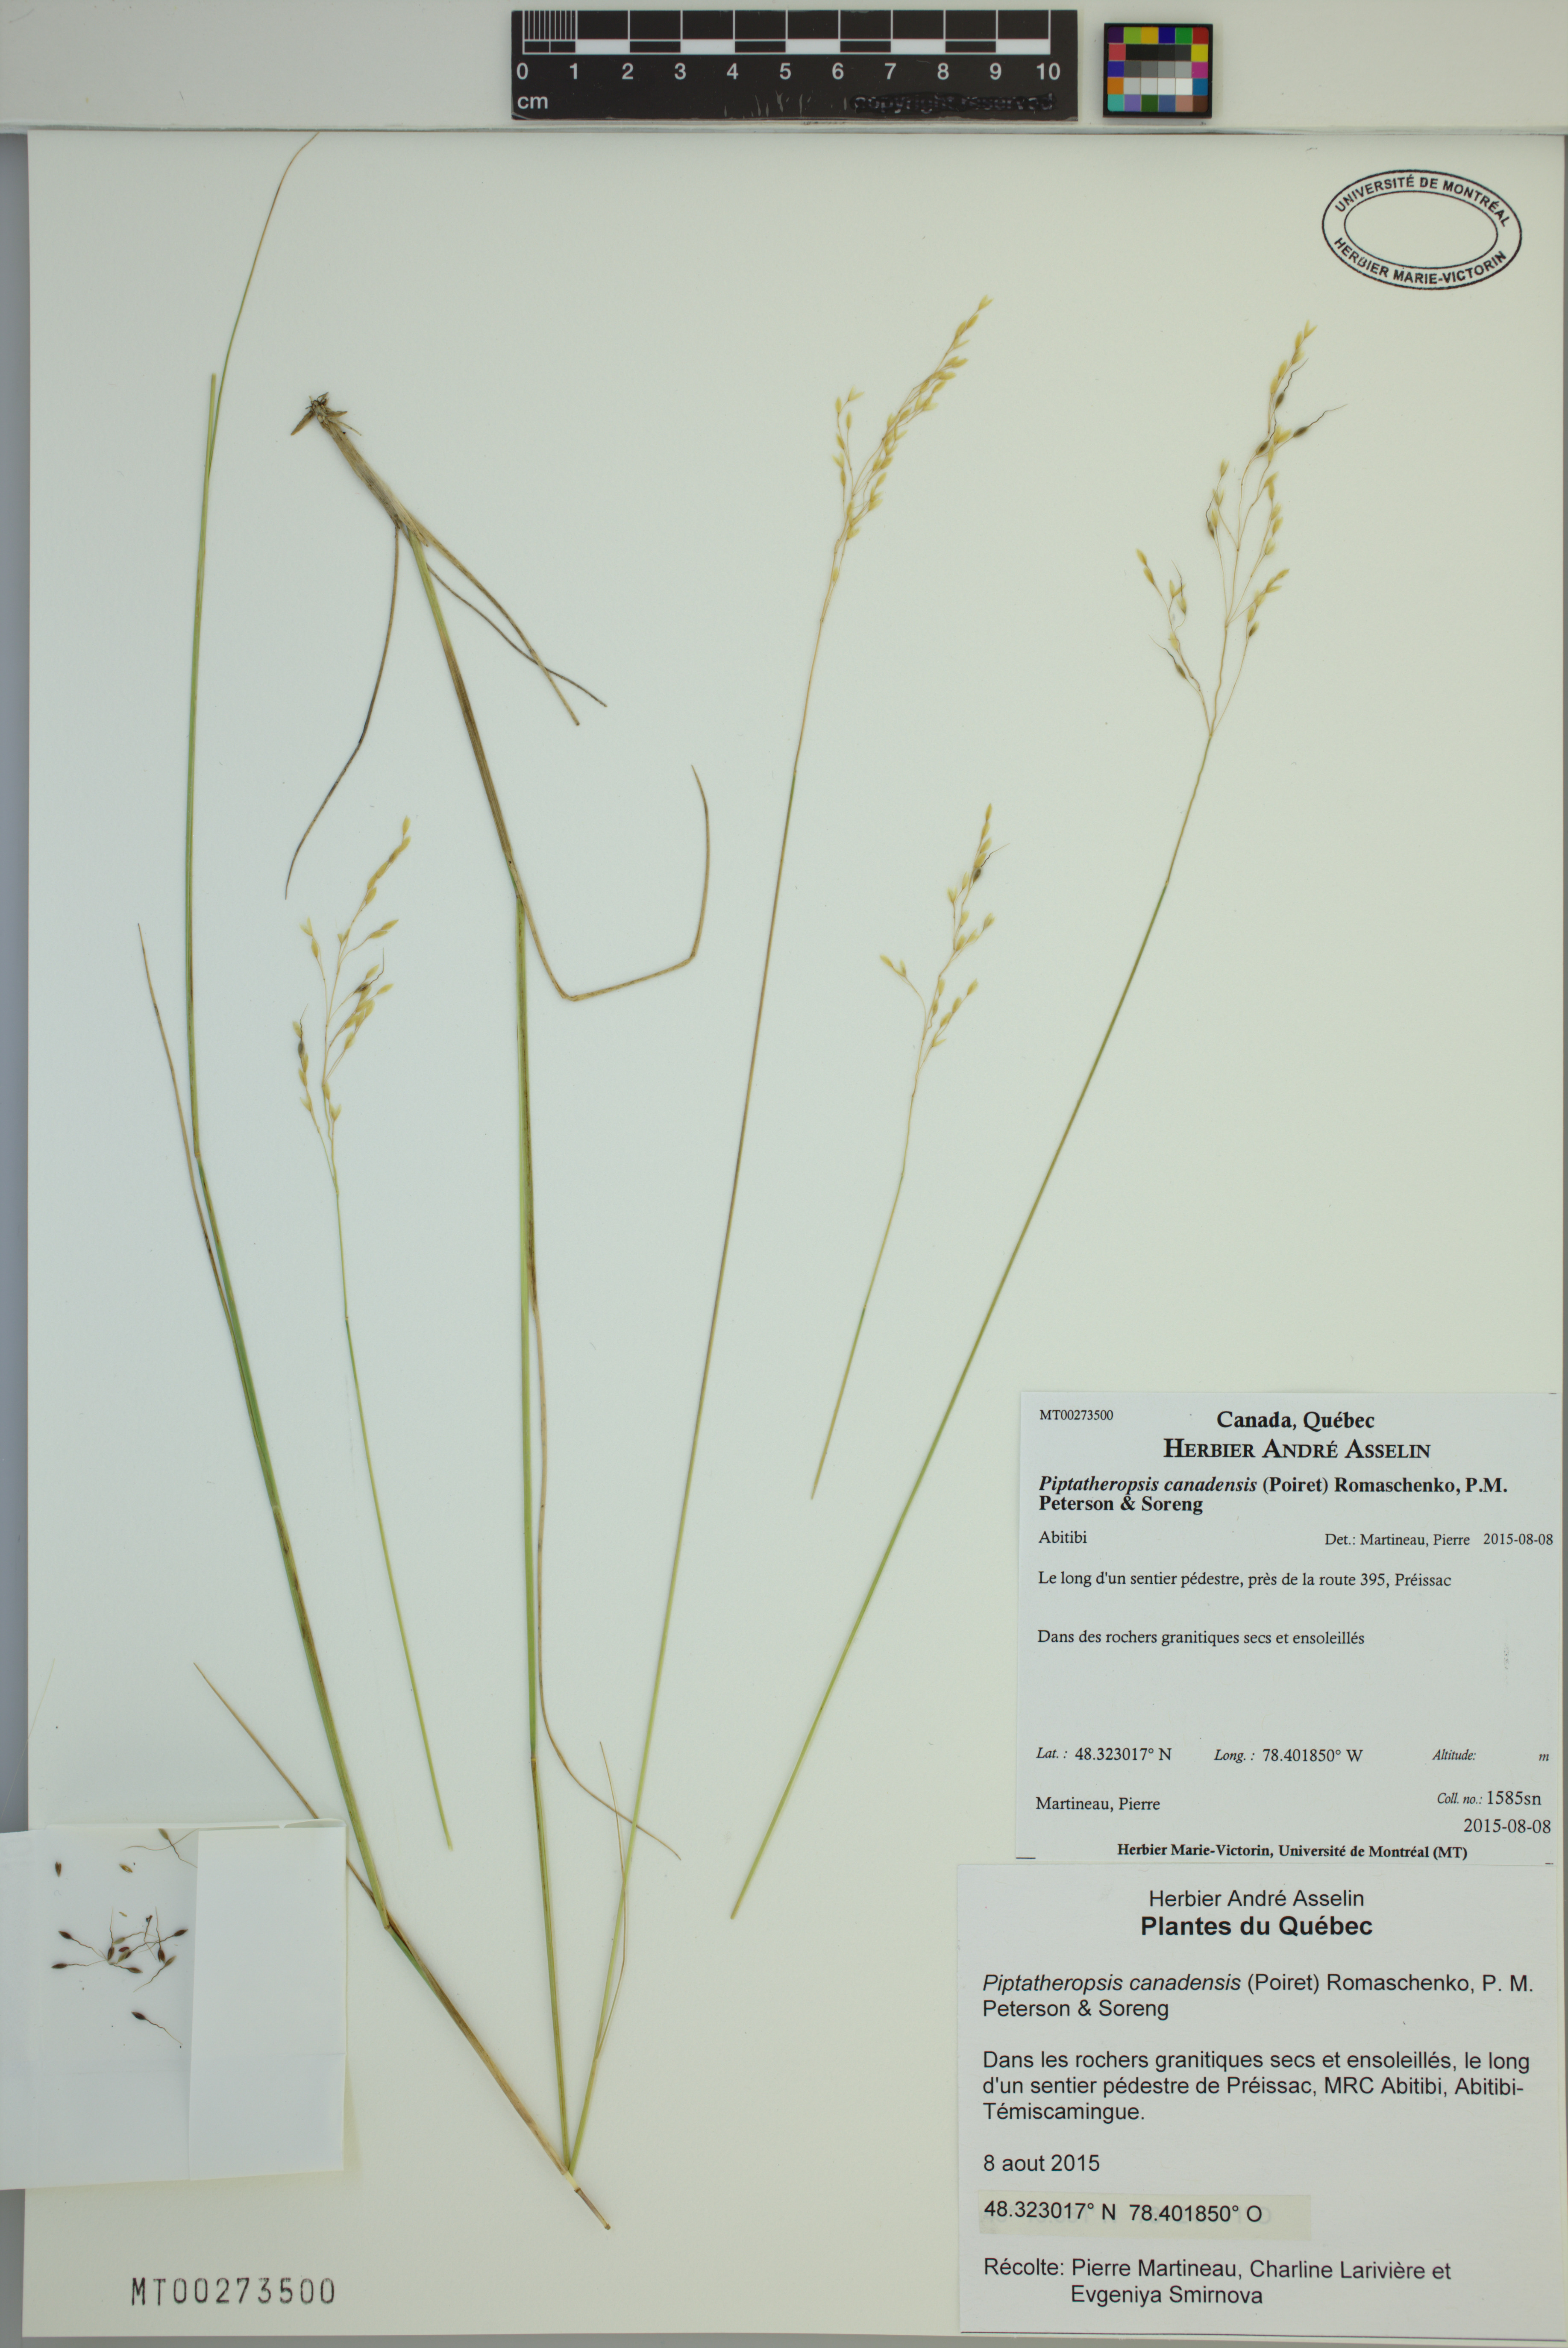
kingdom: Plantae
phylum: Tracheophyta
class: Liliopsida
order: Poales
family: Poaceae
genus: Piptatheropsis
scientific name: Piptatheropsis canadensis
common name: Canada mountain ricegrass
